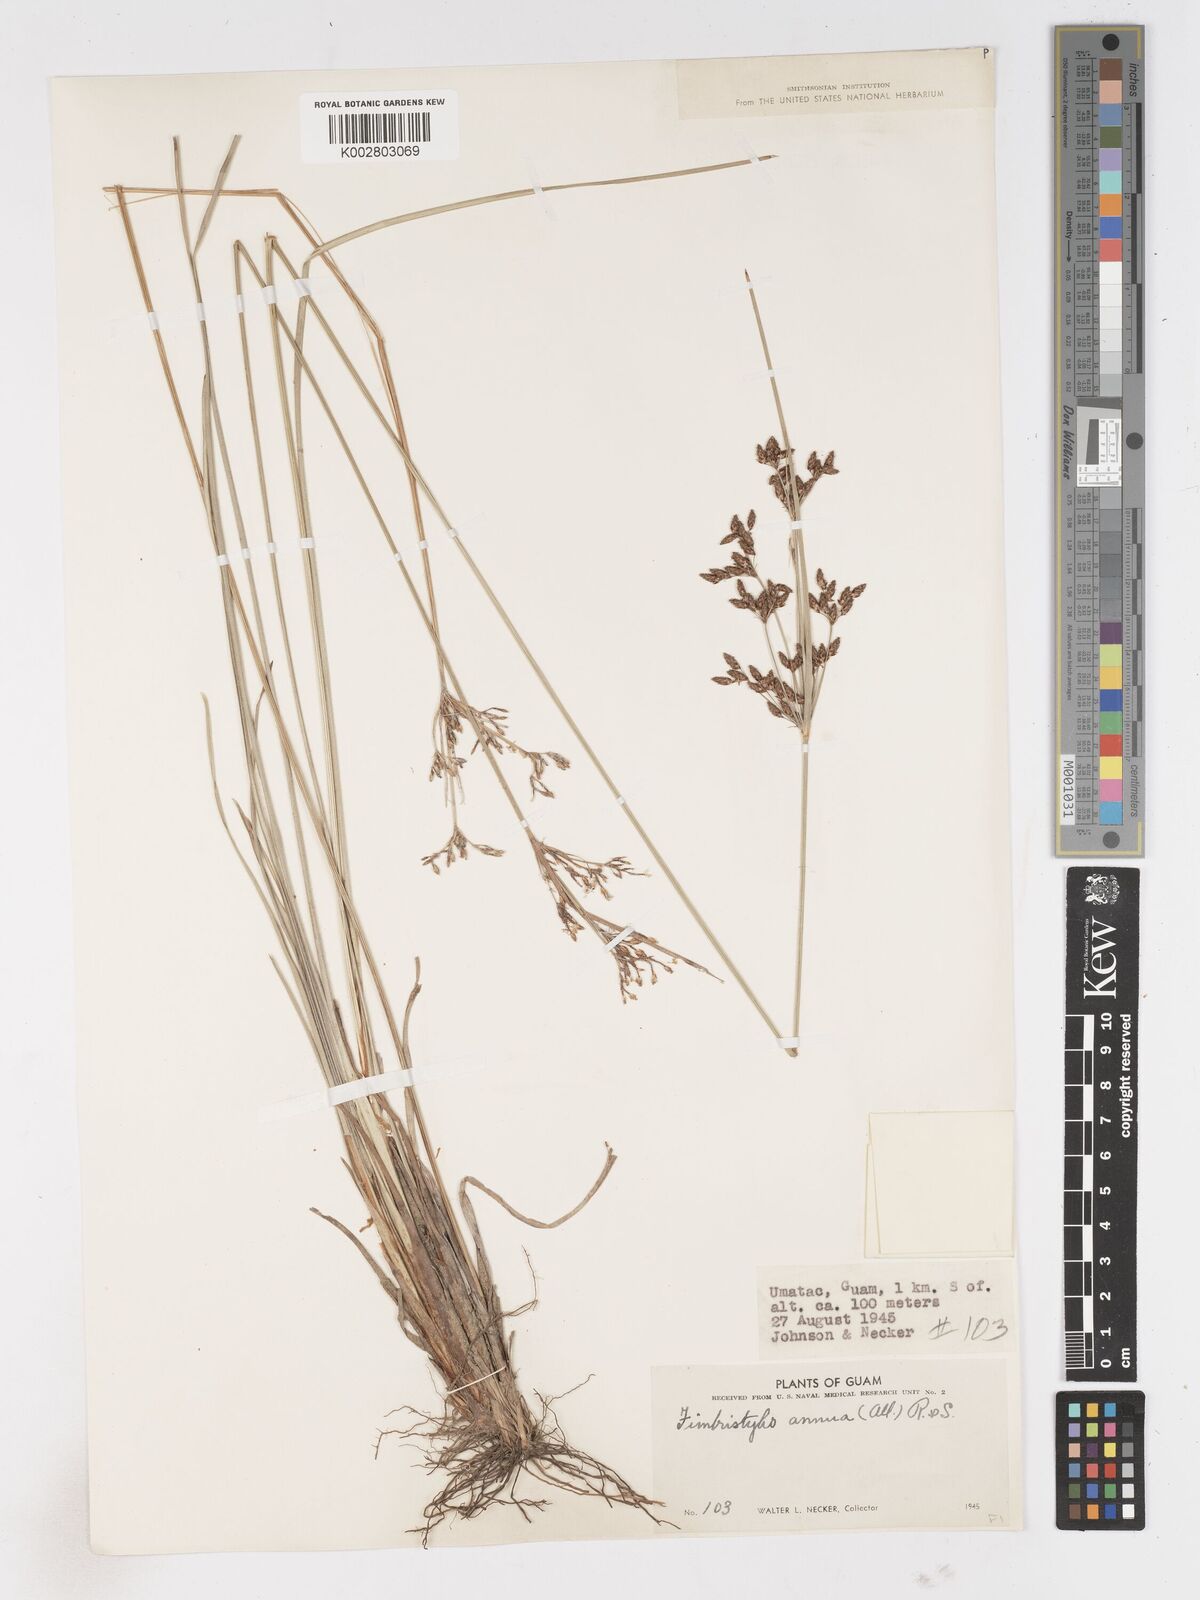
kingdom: Plantae
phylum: Tracheophyta
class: Liliopsida
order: Poales
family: Cyperaceae
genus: Fimbristylis
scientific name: Fimbristylis dichotoma
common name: Forked fimbry
